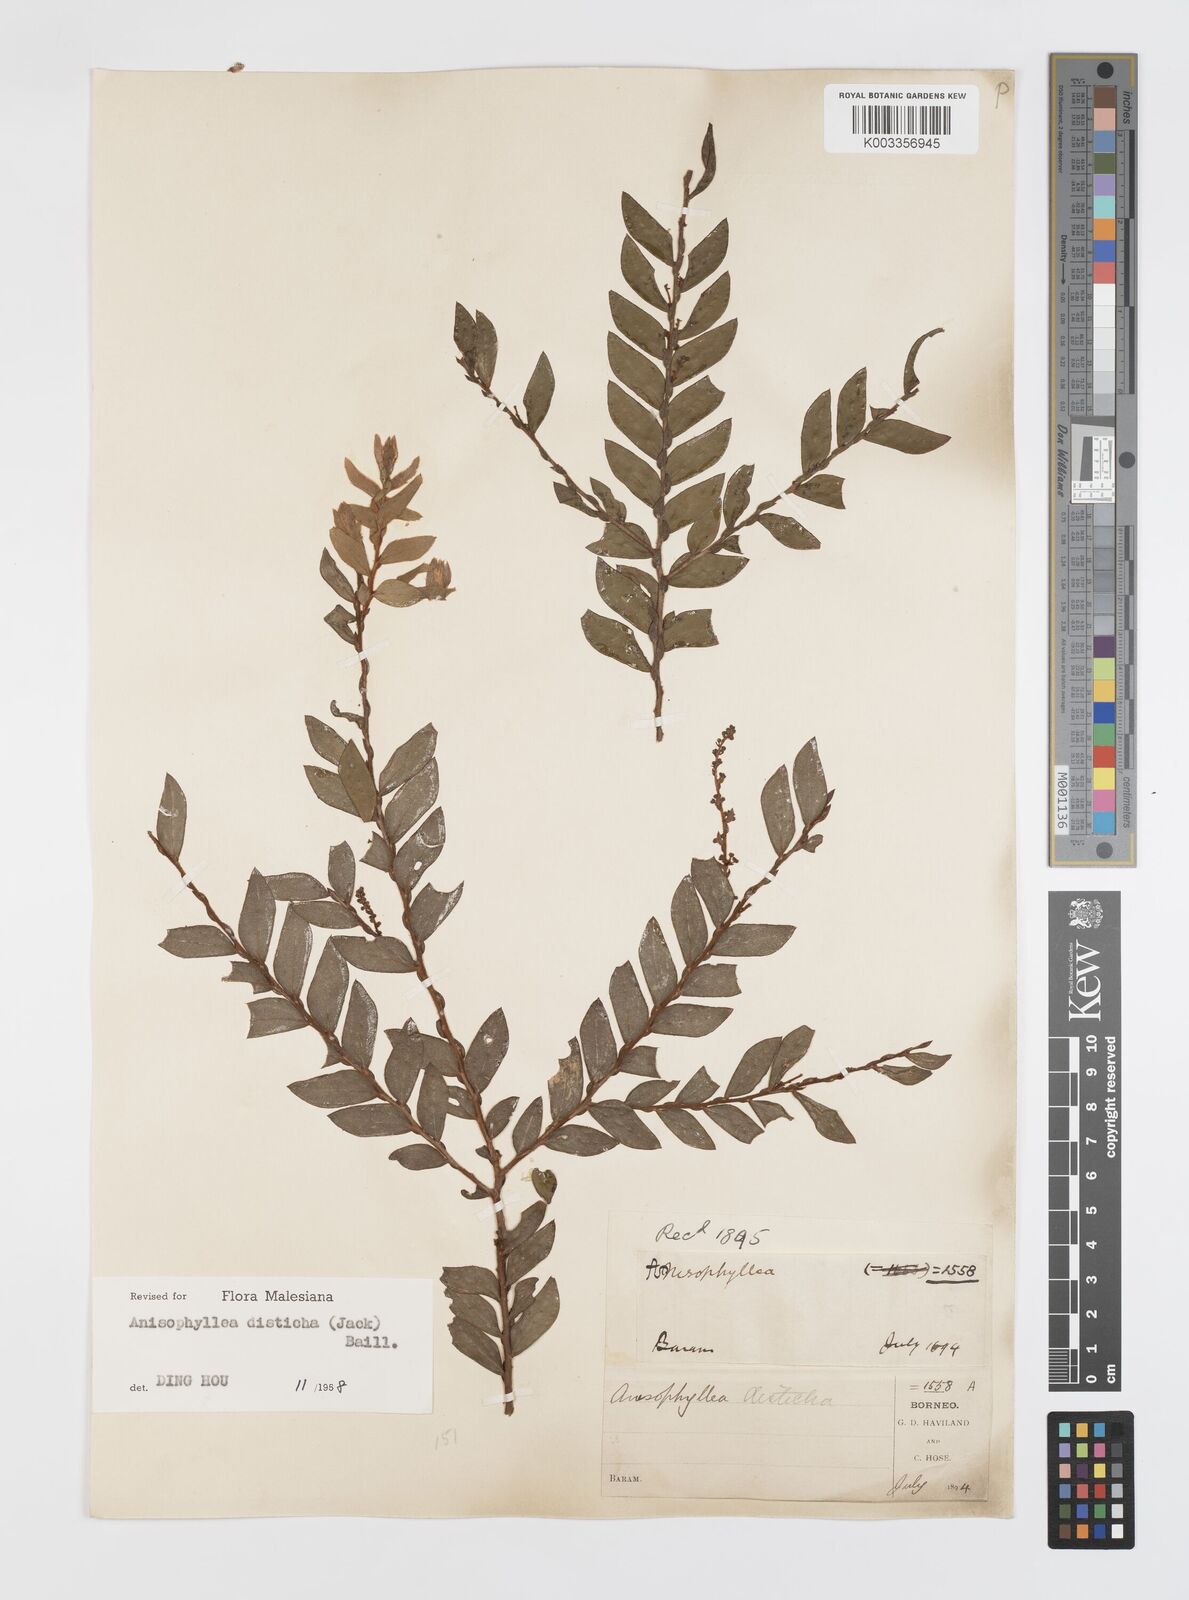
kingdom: Plantae
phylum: Tracheophyta
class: Magnoliopsida
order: Cucurbitales
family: Anisophylleaceae
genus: Anisophyllea
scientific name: Anisophyllea disticha
